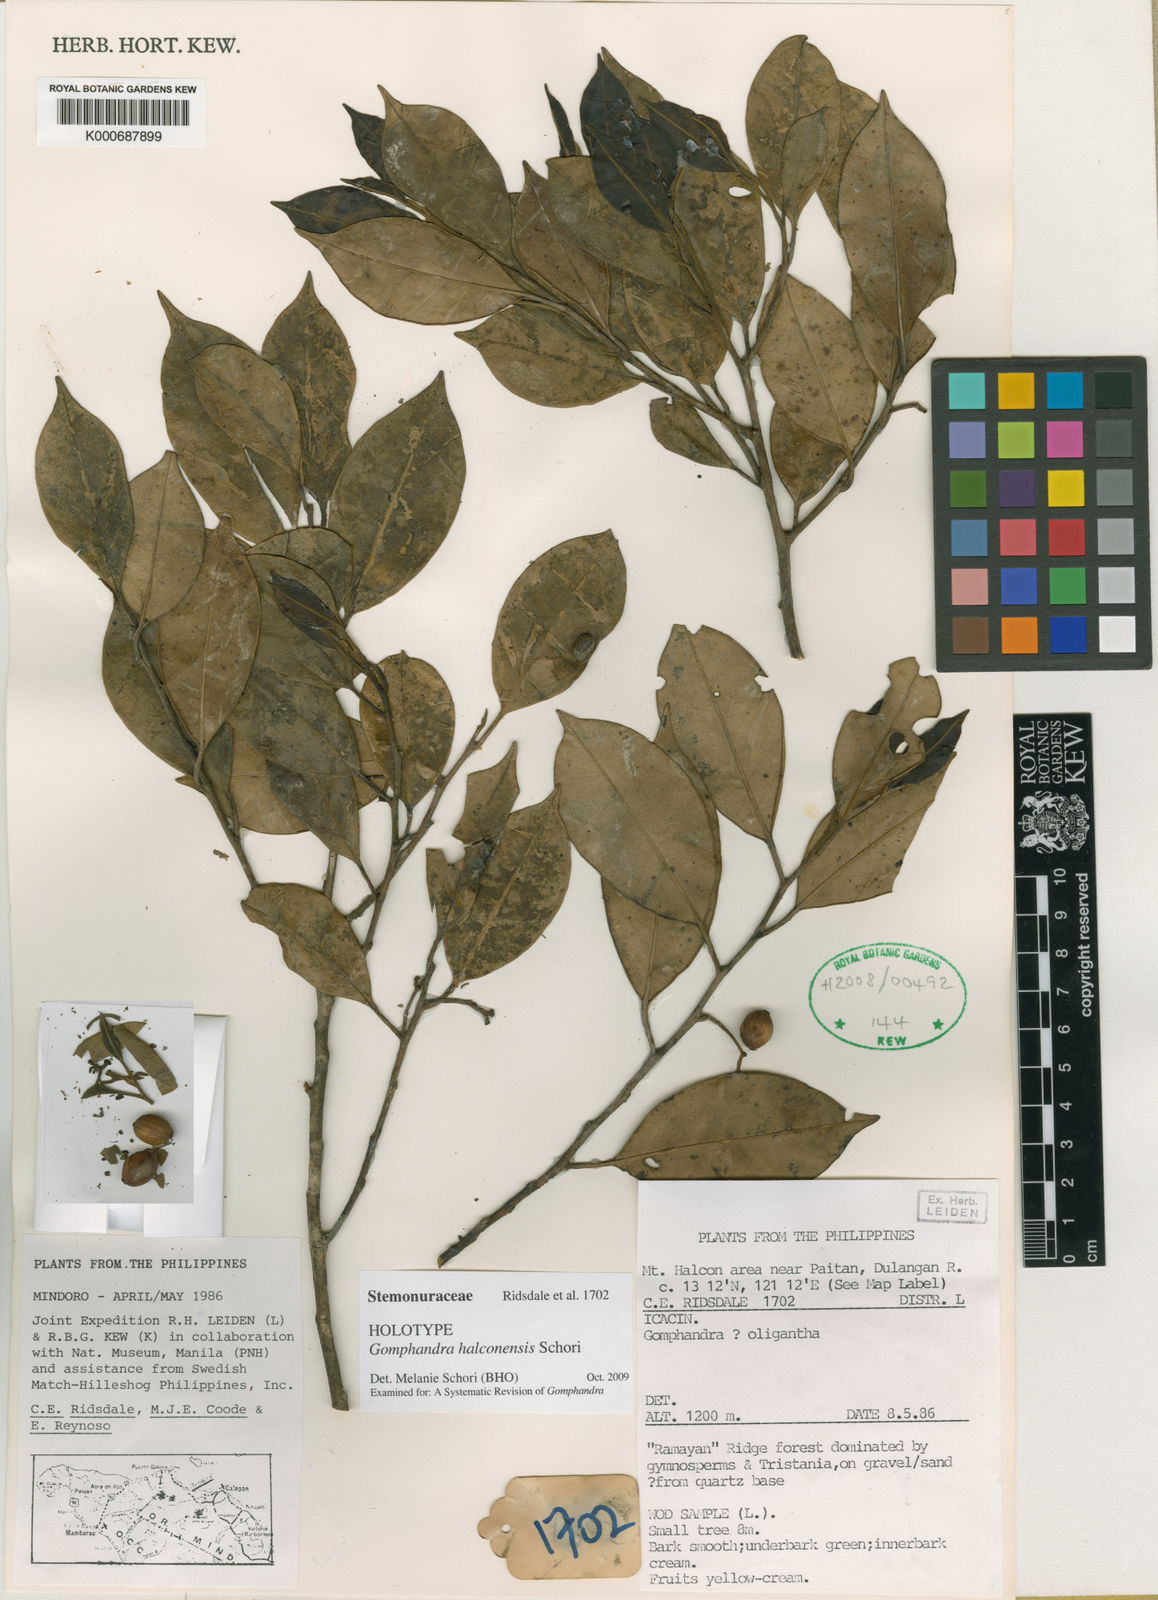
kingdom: Plantae
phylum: Tracheophyta
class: Magnoliopsida
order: Cardiopteridales
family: Stemonuraceae
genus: Gomphandra
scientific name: Gomphandra halconensis
